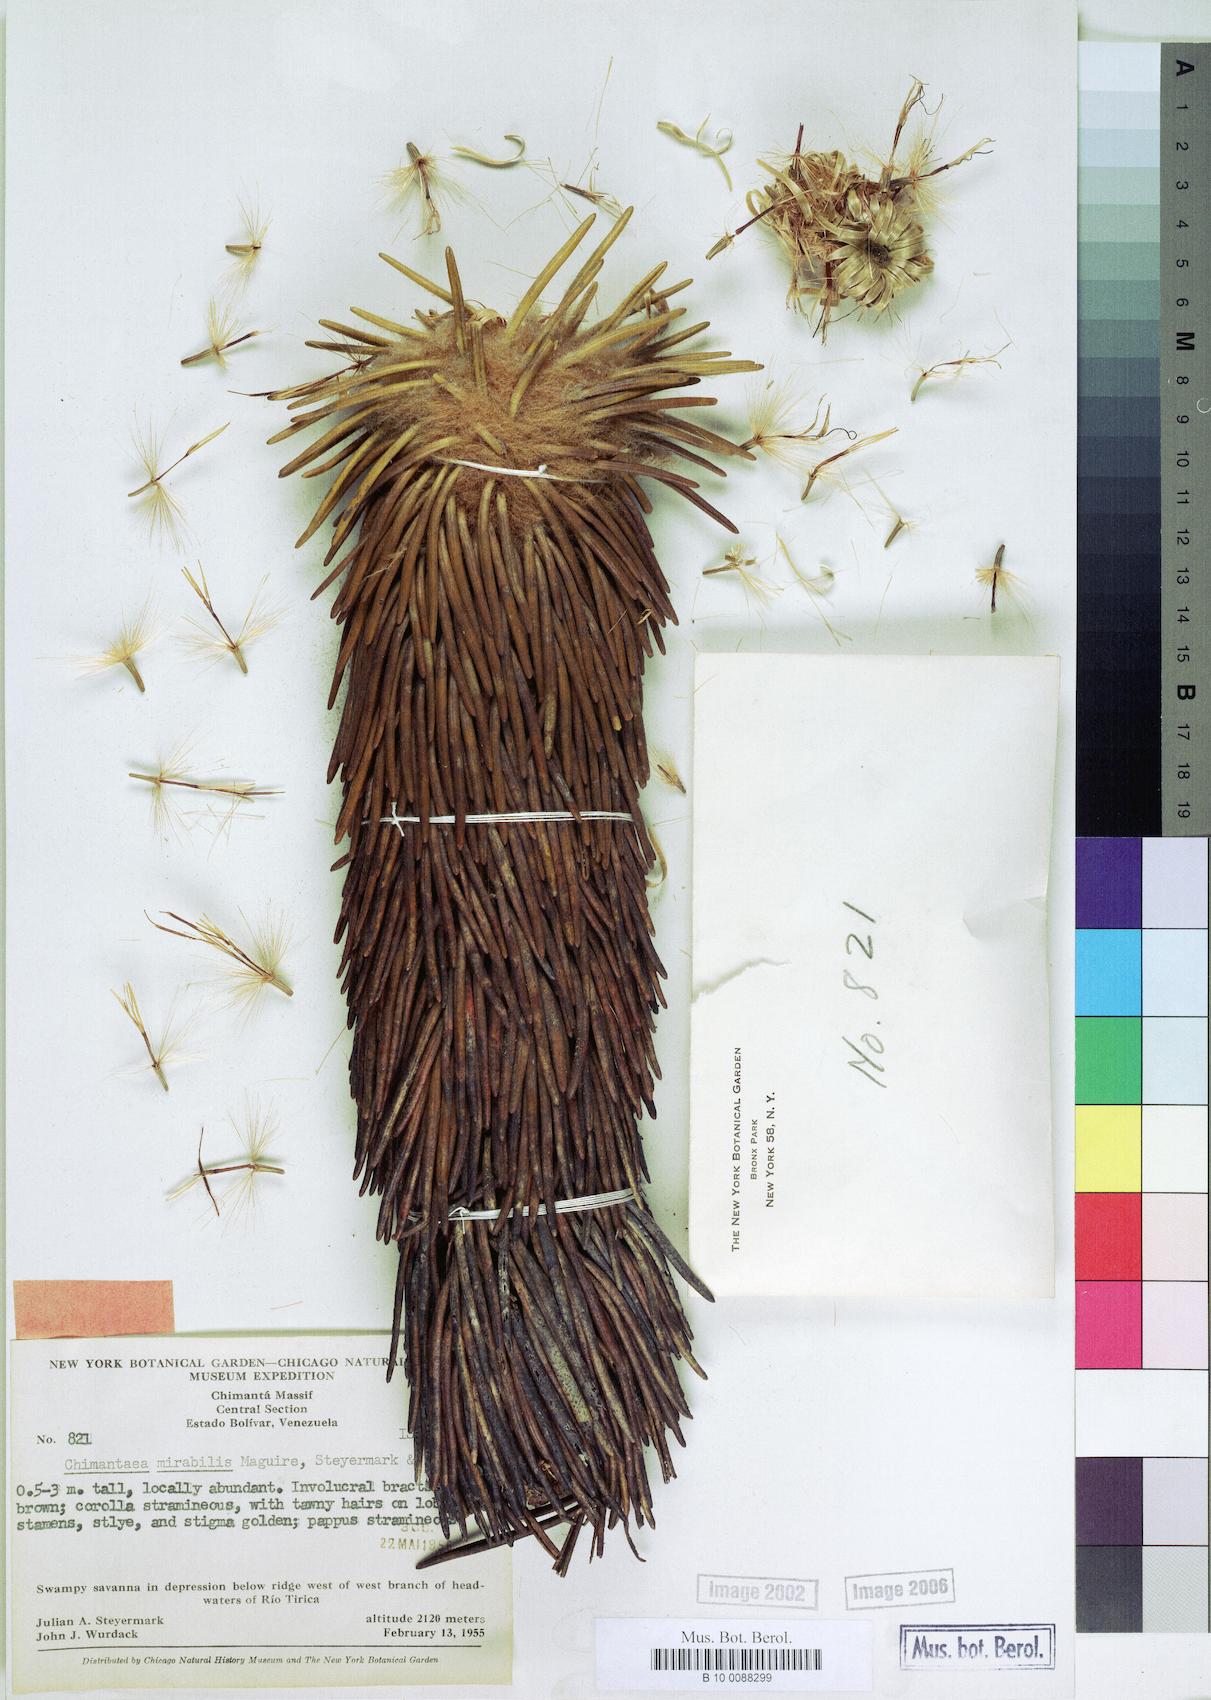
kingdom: Plantae
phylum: Tracheophyta
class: Magnoliopsida
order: Asterales
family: Asteraceae
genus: Chimantaea
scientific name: Chimantaea mirabilis
